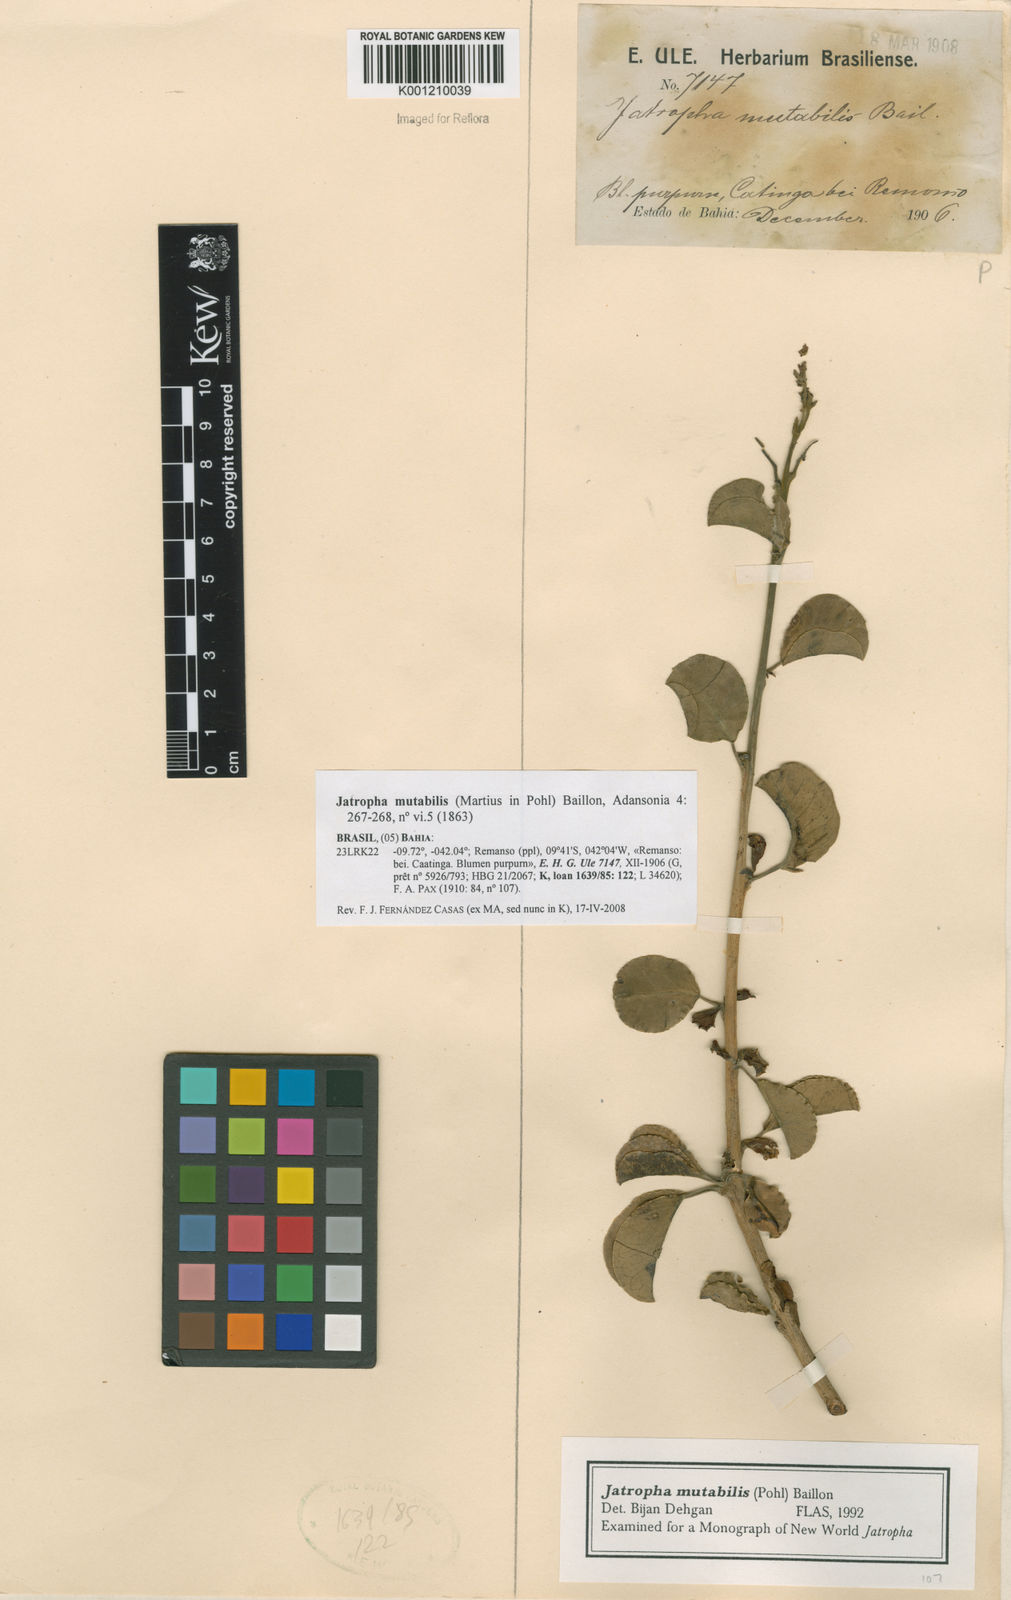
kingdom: Plantae
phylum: Tracheophyta
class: Magnoliopsida
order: Malpighiales
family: Euphorbiaceae
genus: Jatropha
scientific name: Jatropha mutabilis
